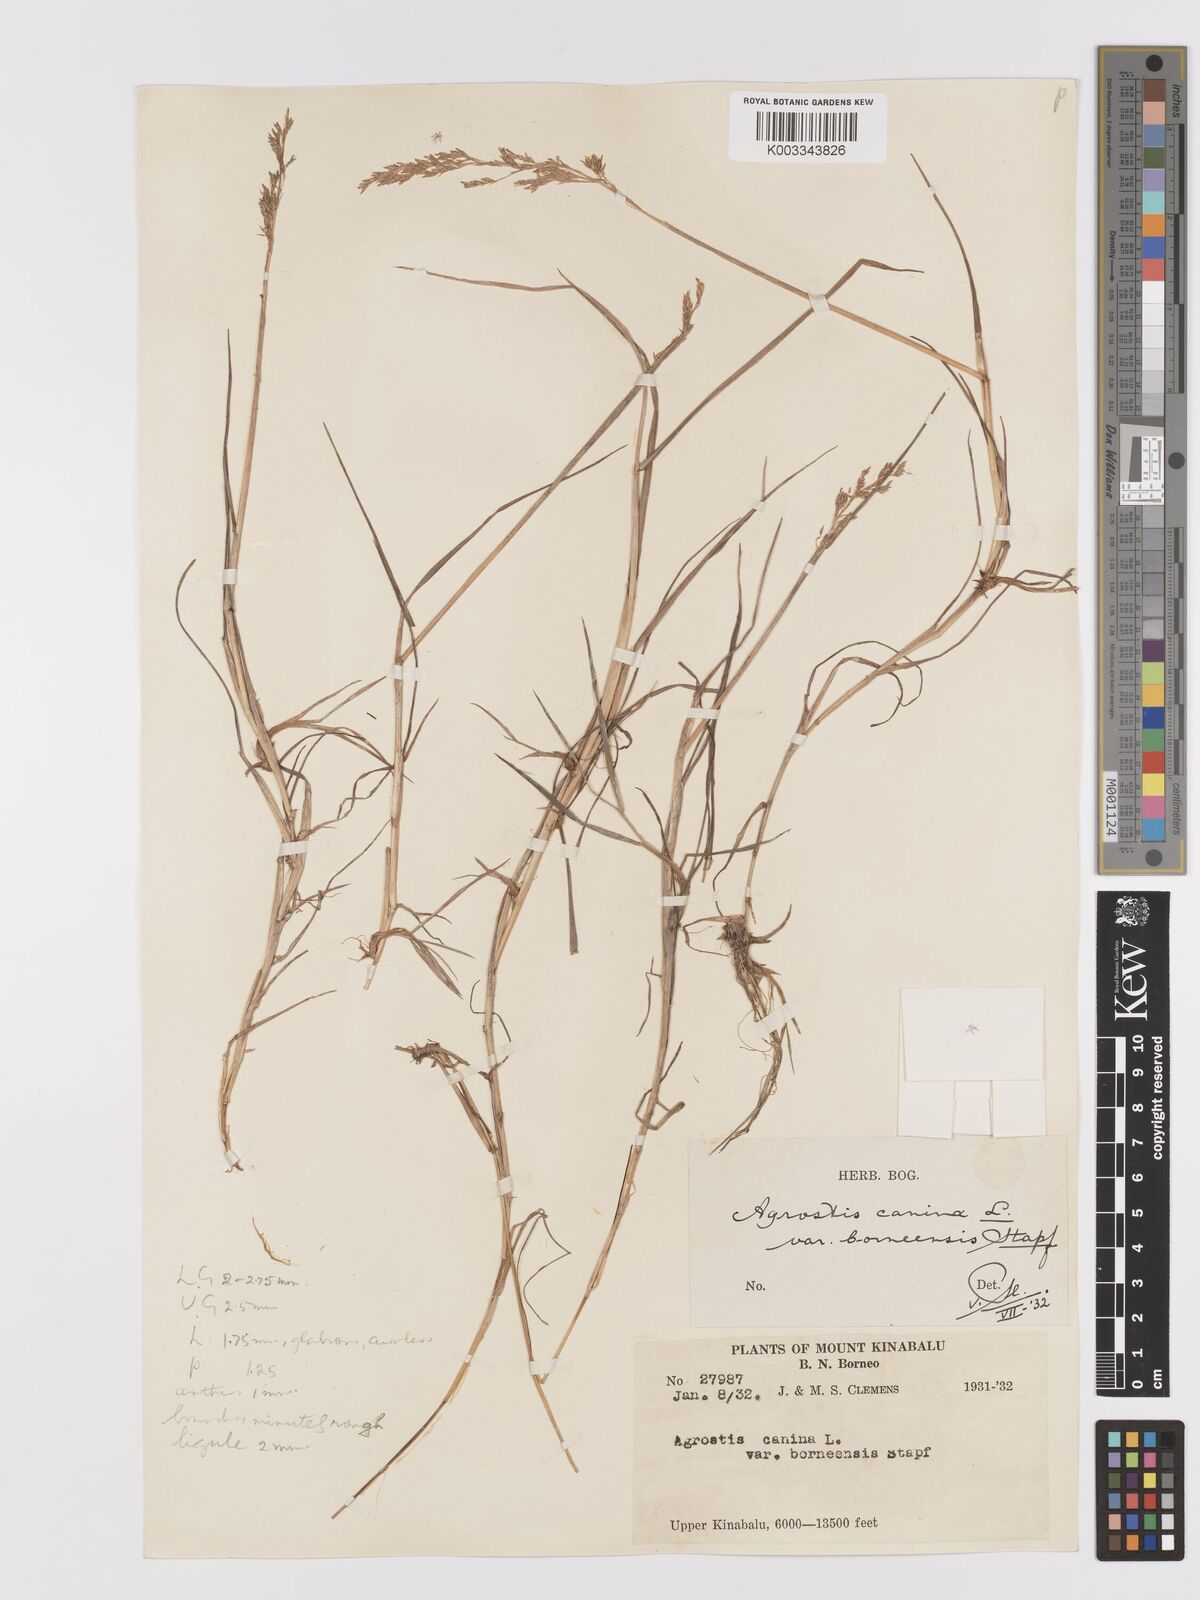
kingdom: Plantae
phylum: Tracheophyta
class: Liliopsida
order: Poales
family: Poaceae
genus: Agrostis
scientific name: Agrostis infirma
